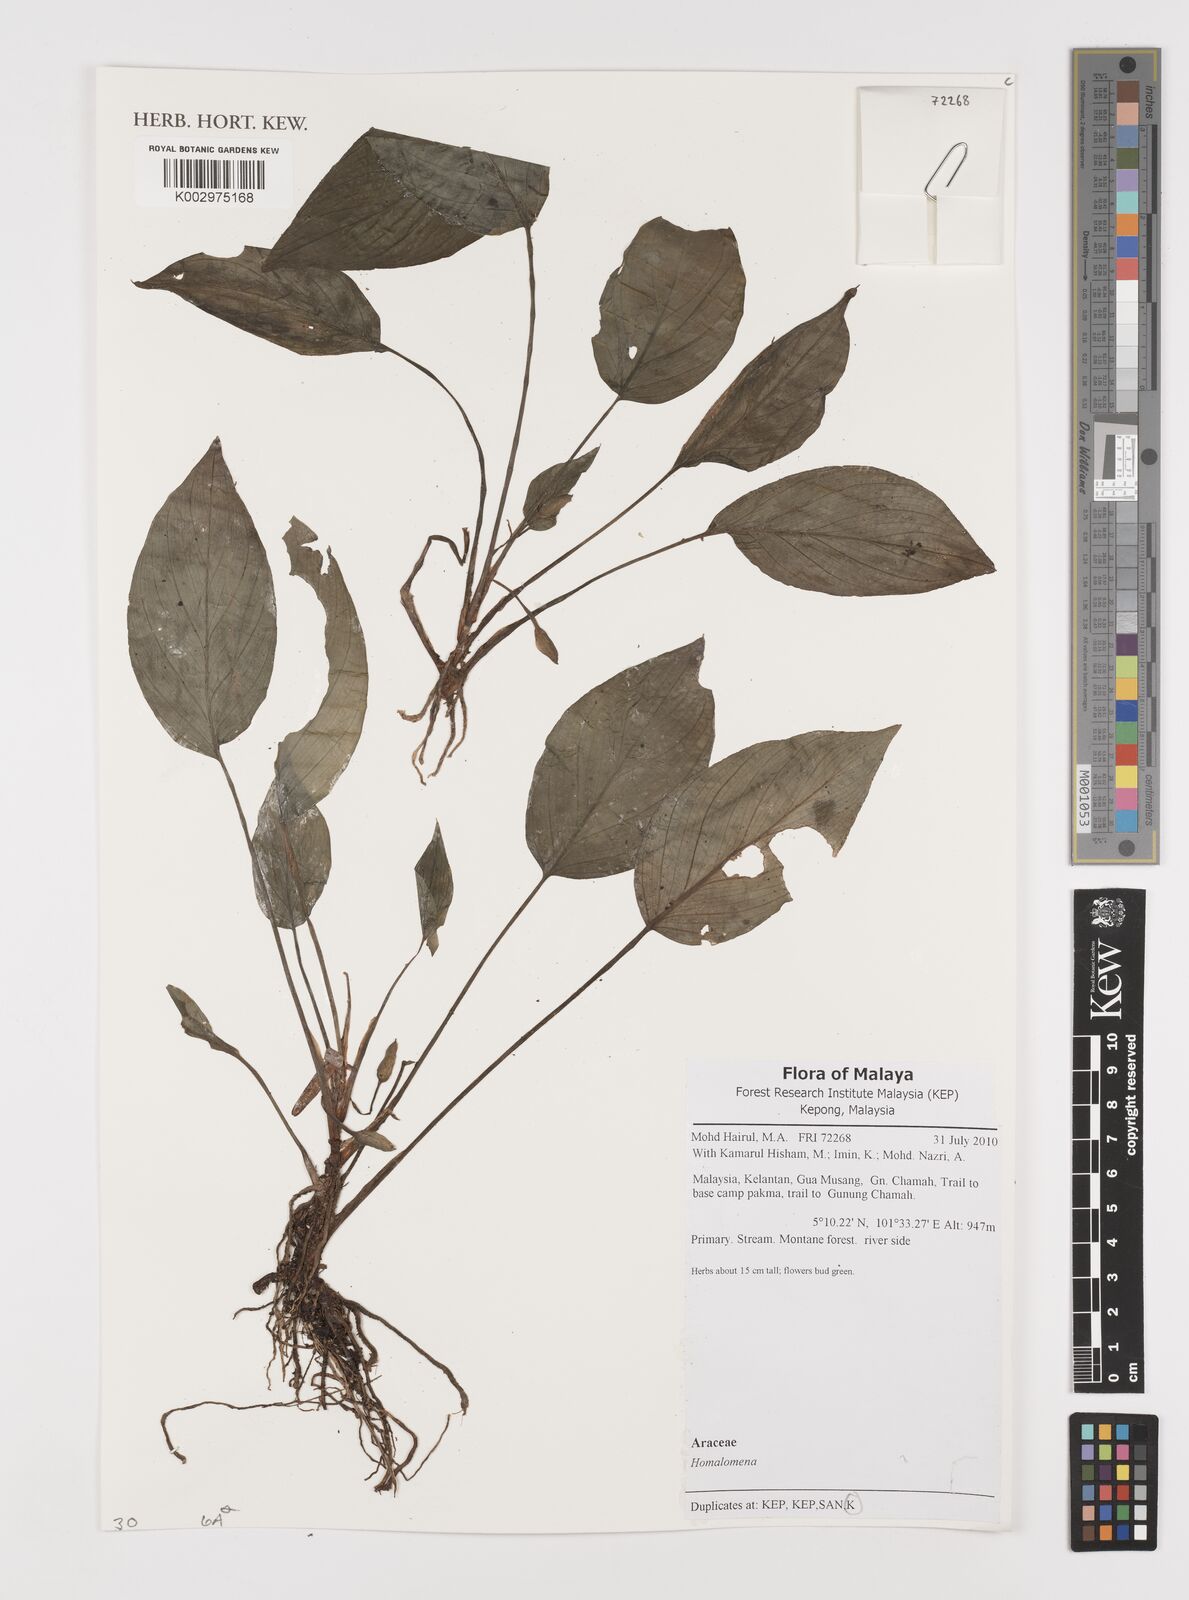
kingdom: Plantae
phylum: Tracheophyta
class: Liliopsida
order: Alismatales
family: Araceae
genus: Homalomena
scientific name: Homalomena
